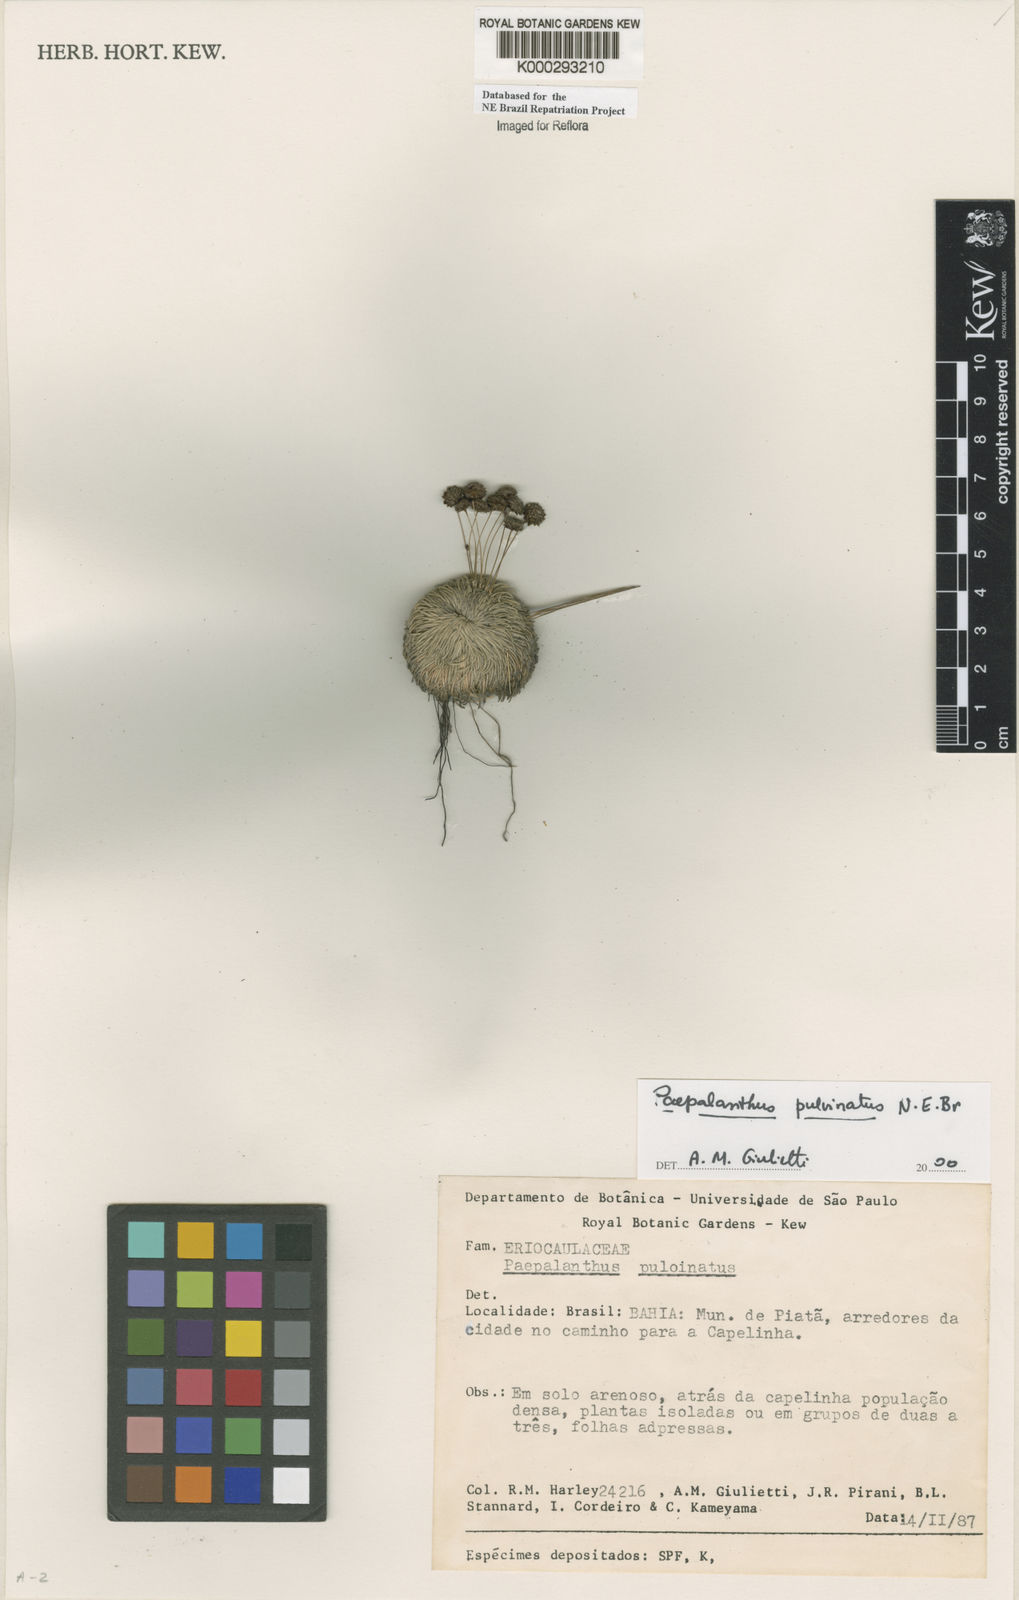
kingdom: Plantae
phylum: Tracheophyta
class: Liliopsida
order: Poales
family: Eriocaulaceae
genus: Paepalanthus
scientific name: Paepalanthus pulvinatus
